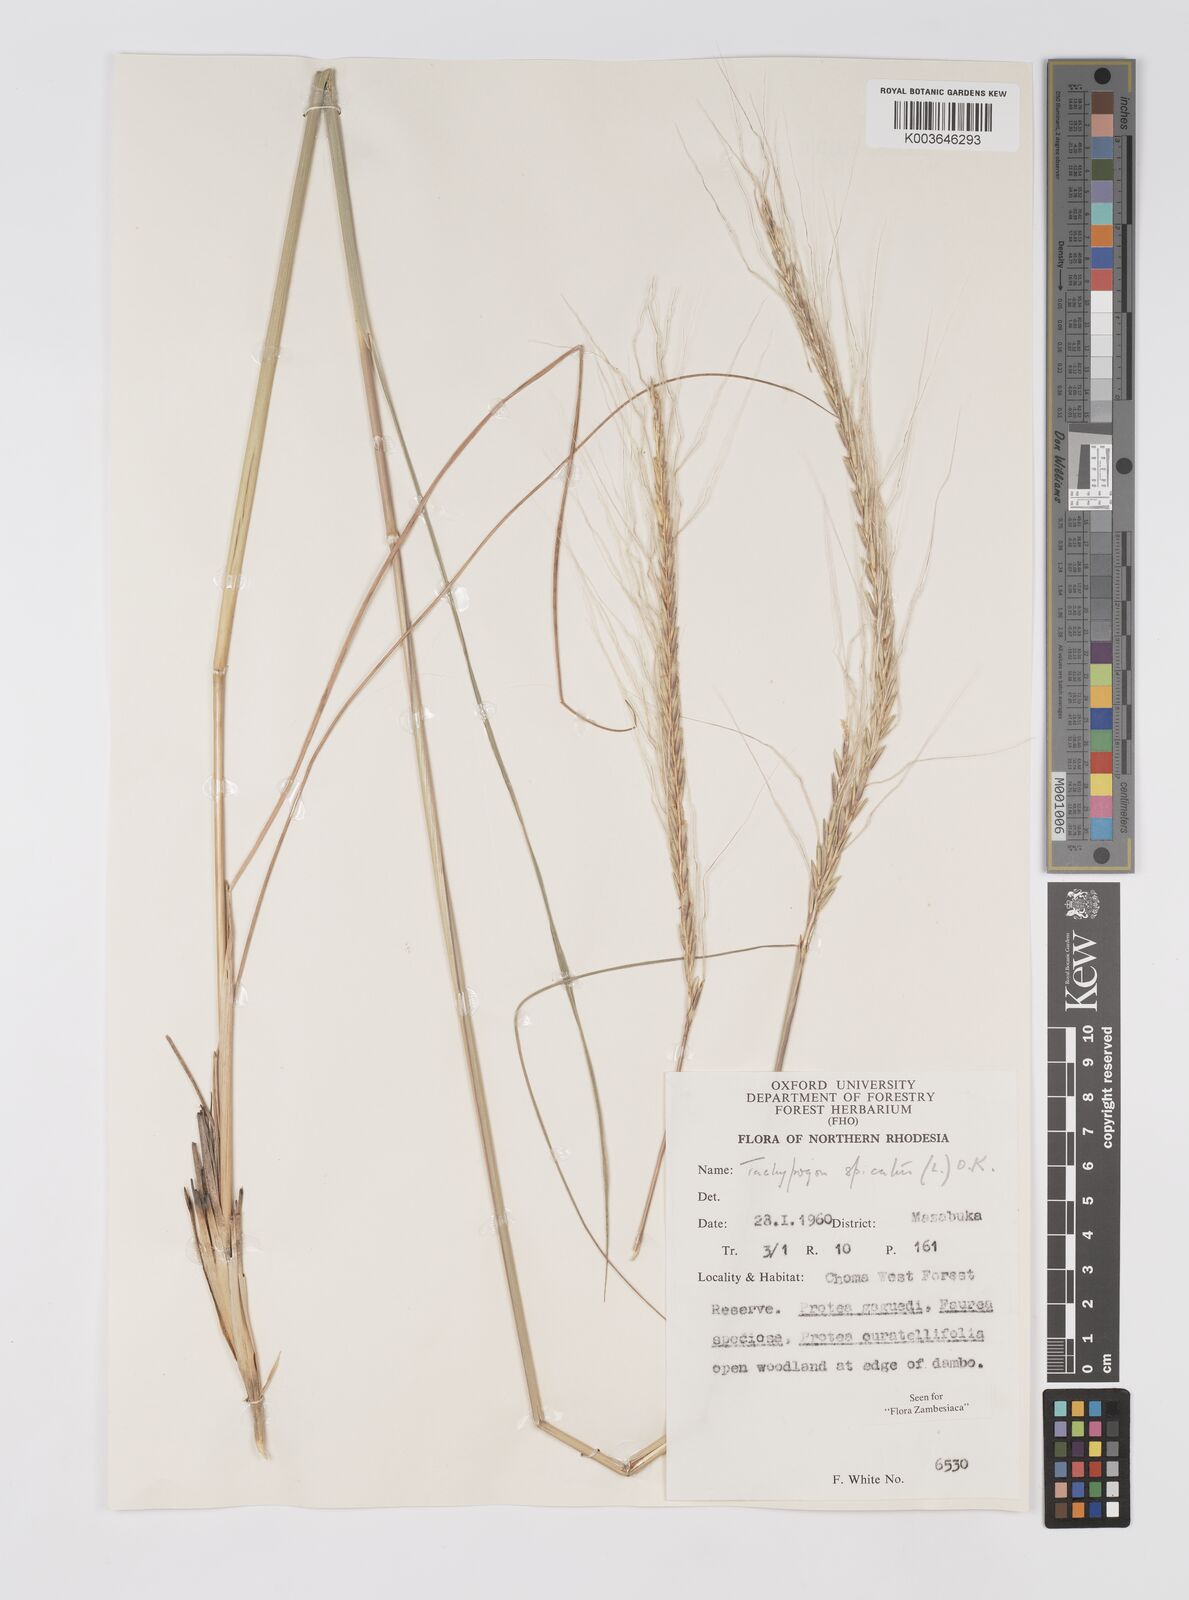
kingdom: Plantae
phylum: Tracheophyta
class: Liliopsida
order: Poales
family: Poaceae
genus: Trachypogon
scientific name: Trachypogon spicatus
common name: Crinkle-awn
